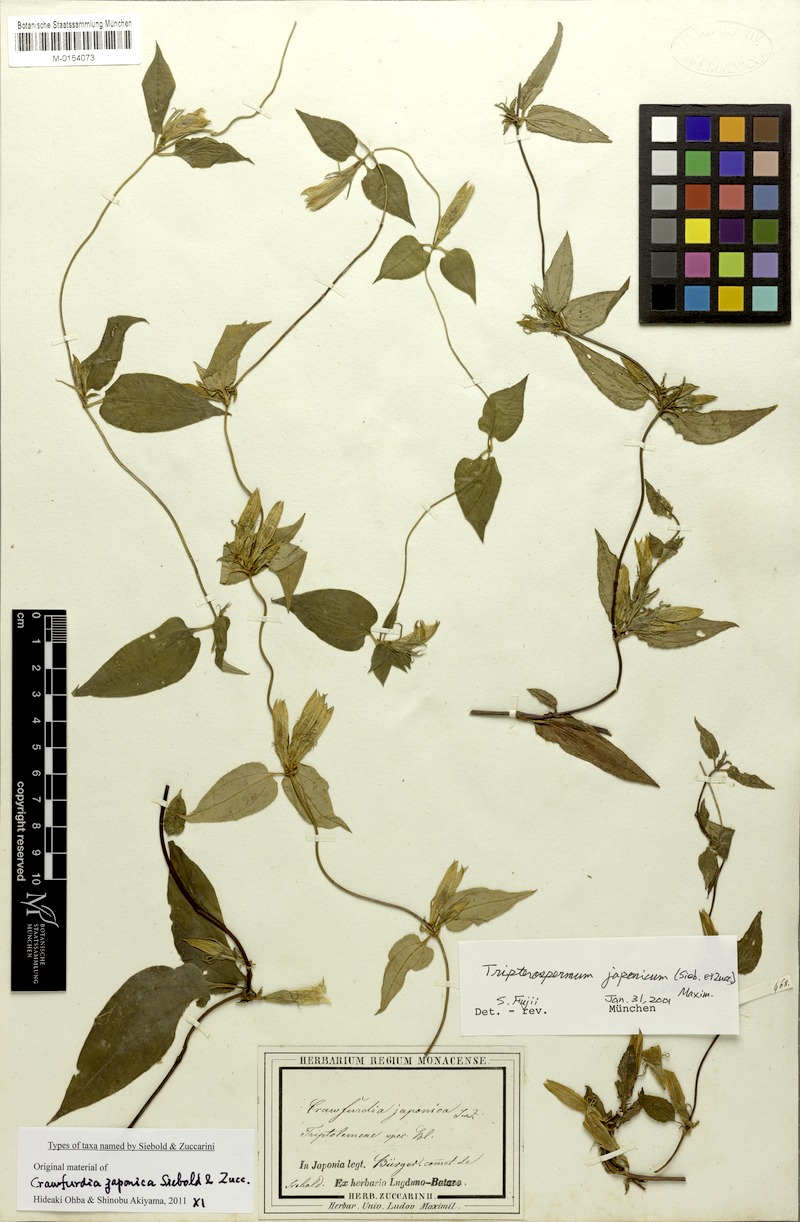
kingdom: Plantae
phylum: Tracheophyta
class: Magnoliopsida
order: Gentianales
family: Gentianaceae
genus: Tripterospermum
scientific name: Tripterospermum trinervium
